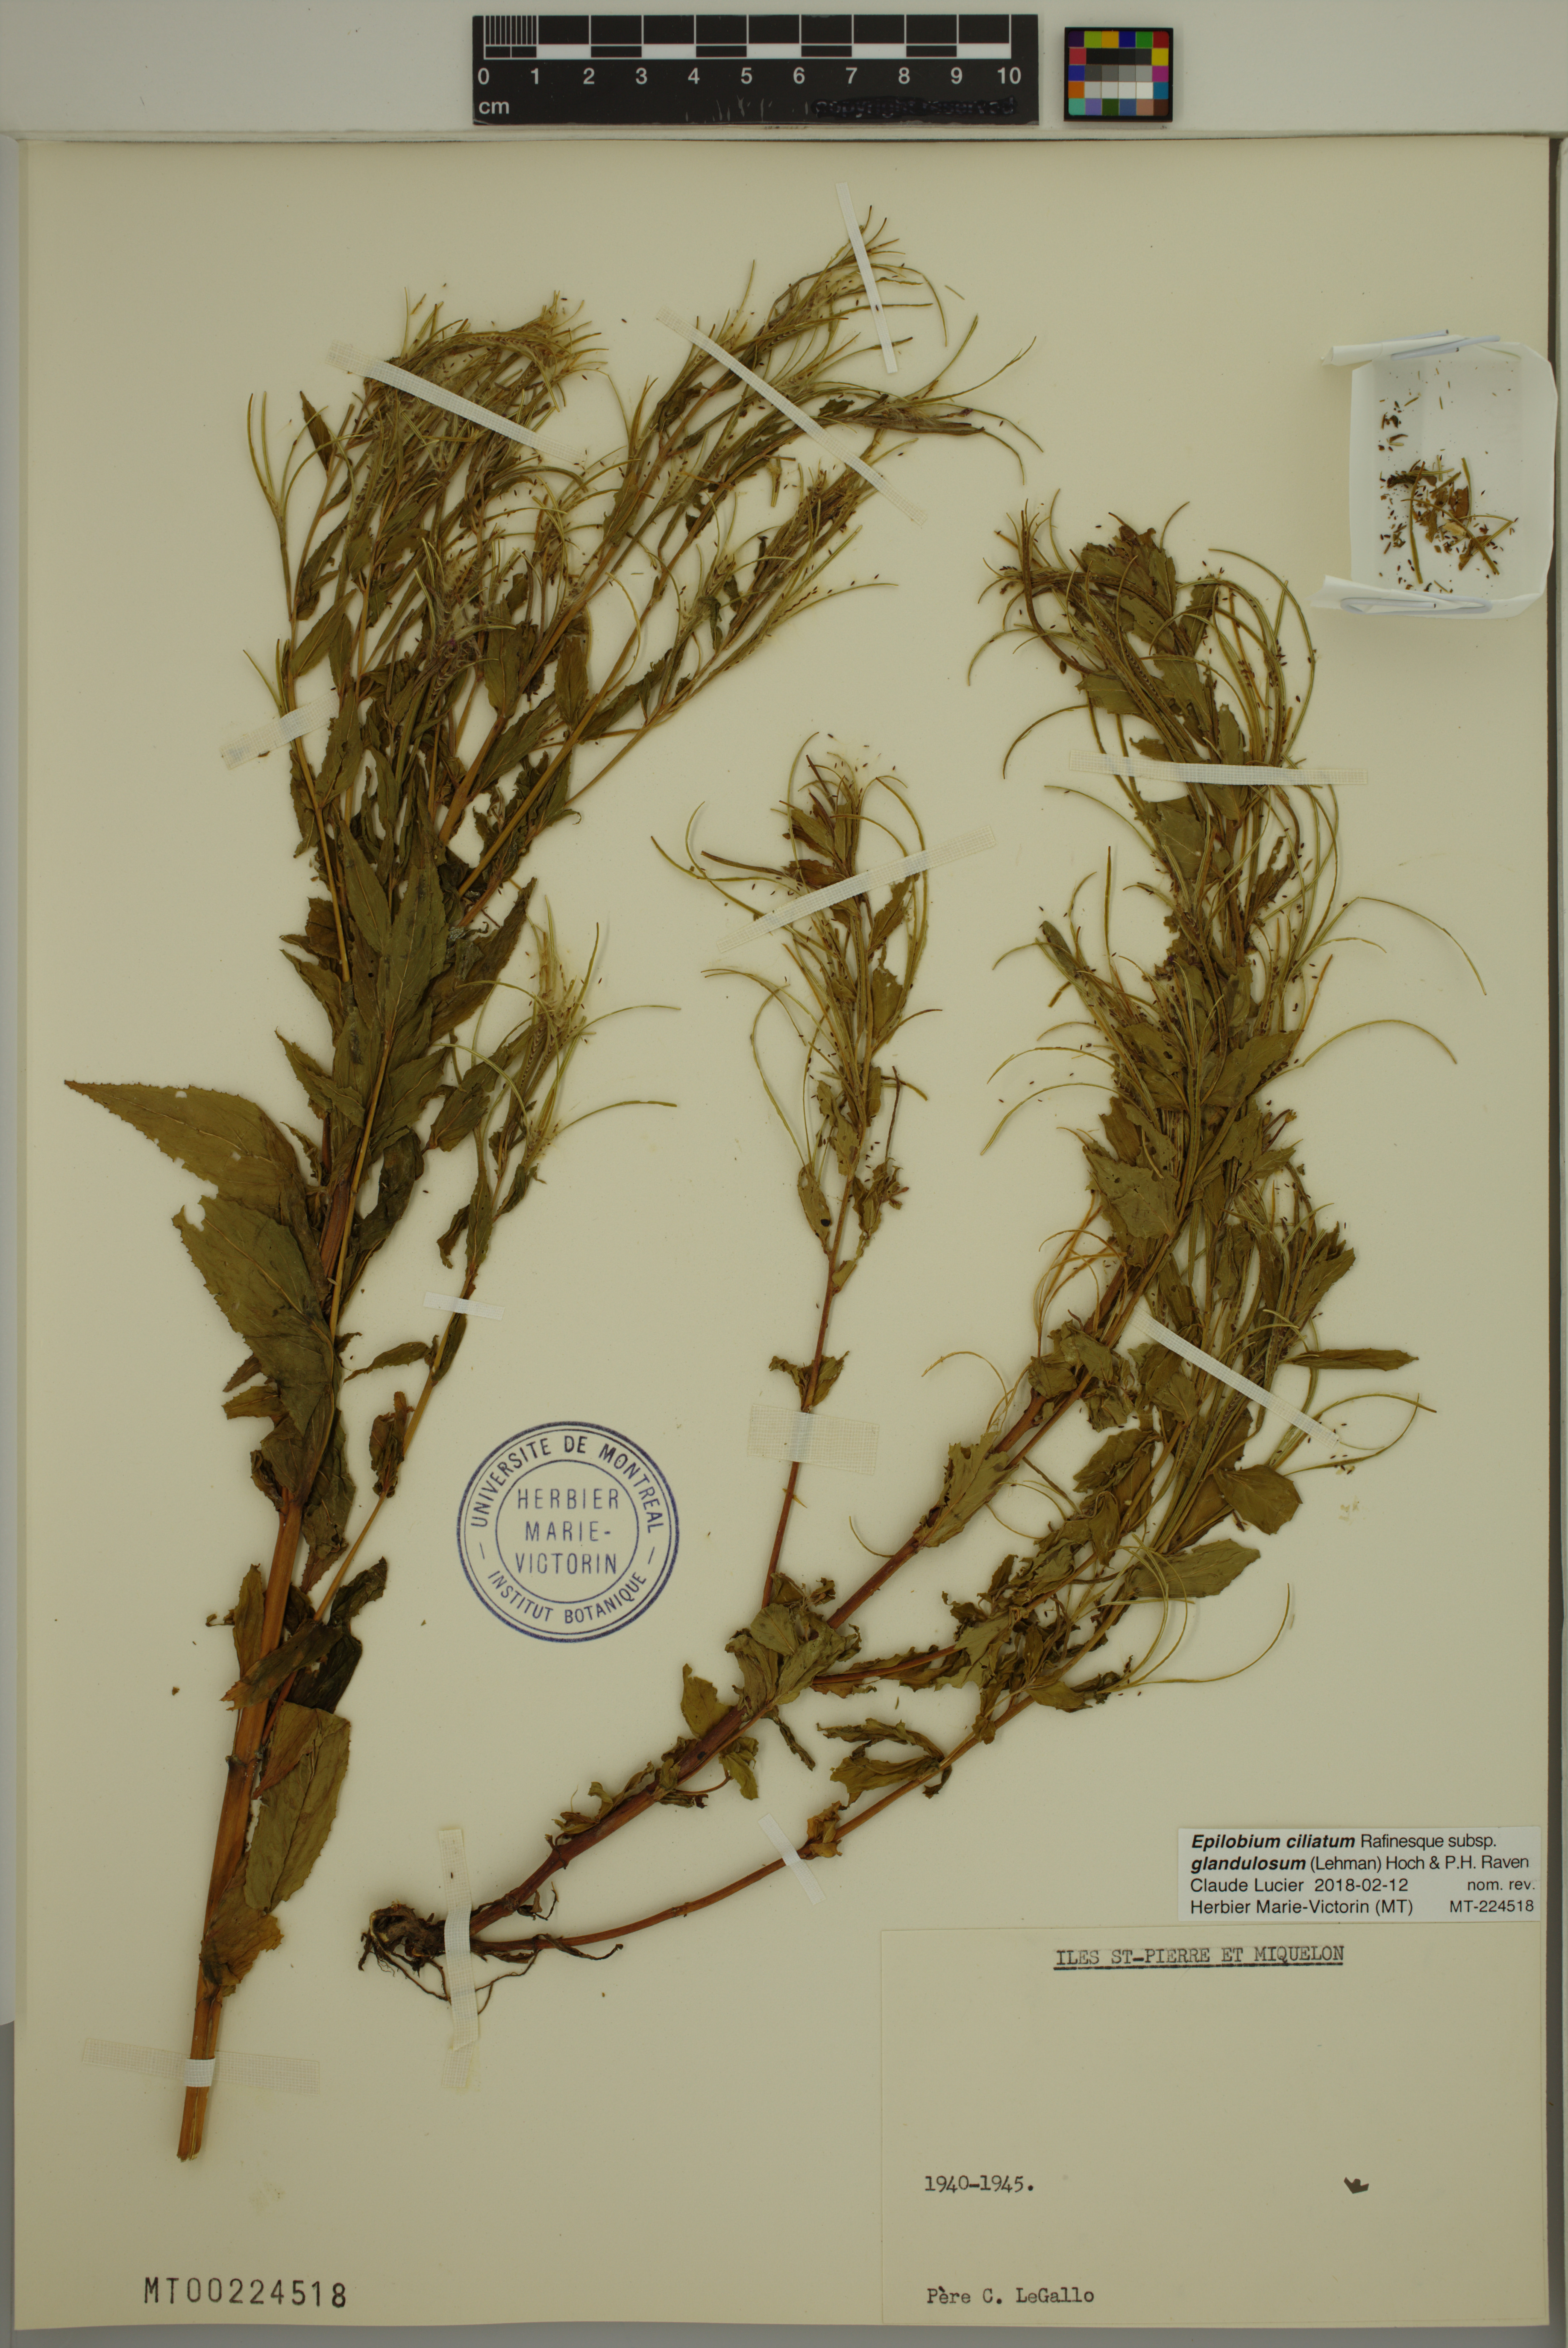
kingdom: Plantae
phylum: Tracheophyta
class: Magnoliopsida
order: Myrtales
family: Onagraceae
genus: Epilobium
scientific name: Epilobium ciliatum
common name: American willowherb
